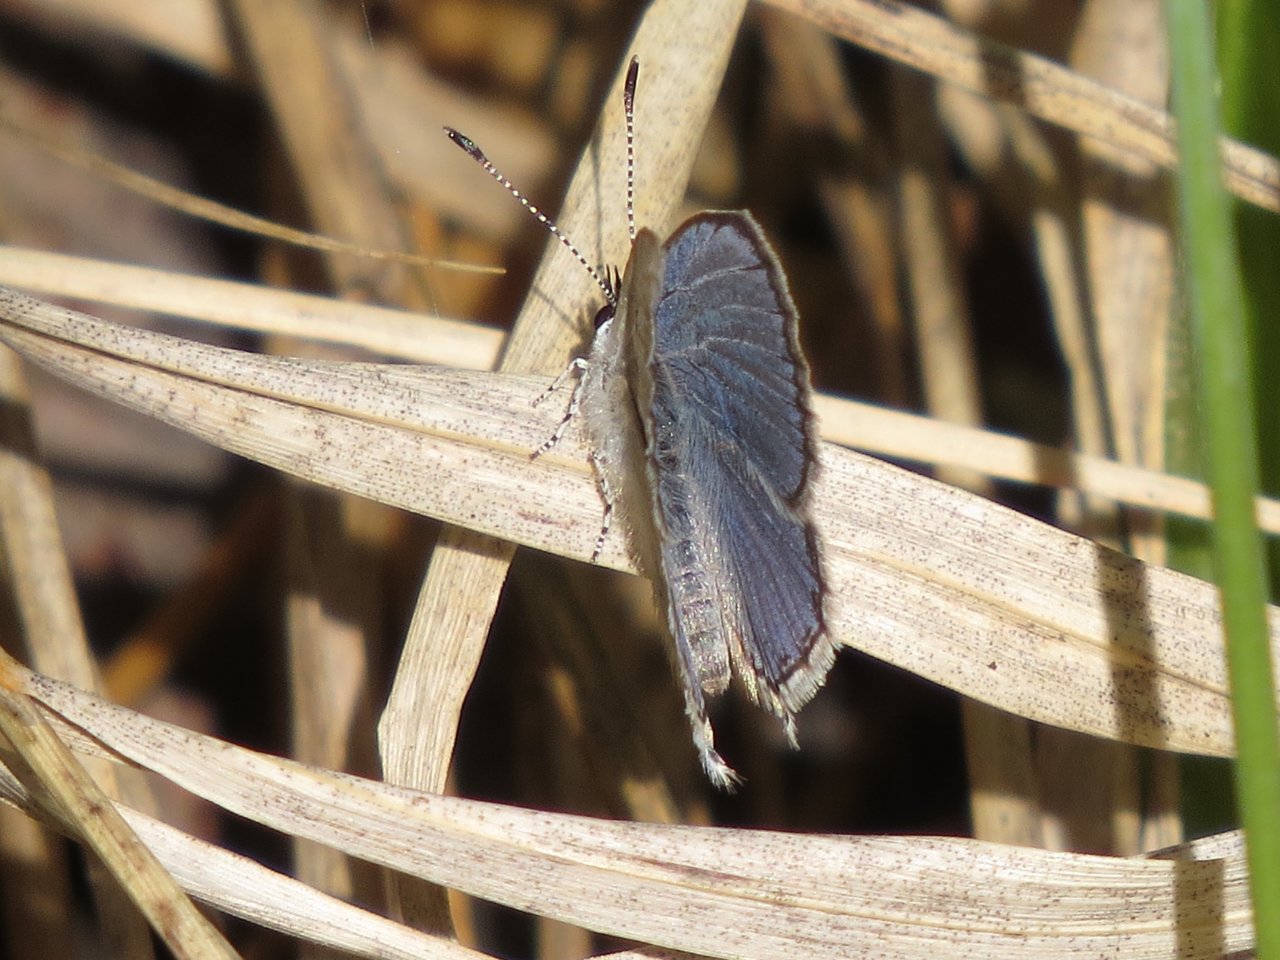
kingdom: Animalia
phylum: Arthropoda
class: Insecta
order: Lepidoptera
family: Lycaenidae
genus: Elkalyce
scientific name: Elkalyce amyntula
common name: Western Tailed-Blue
